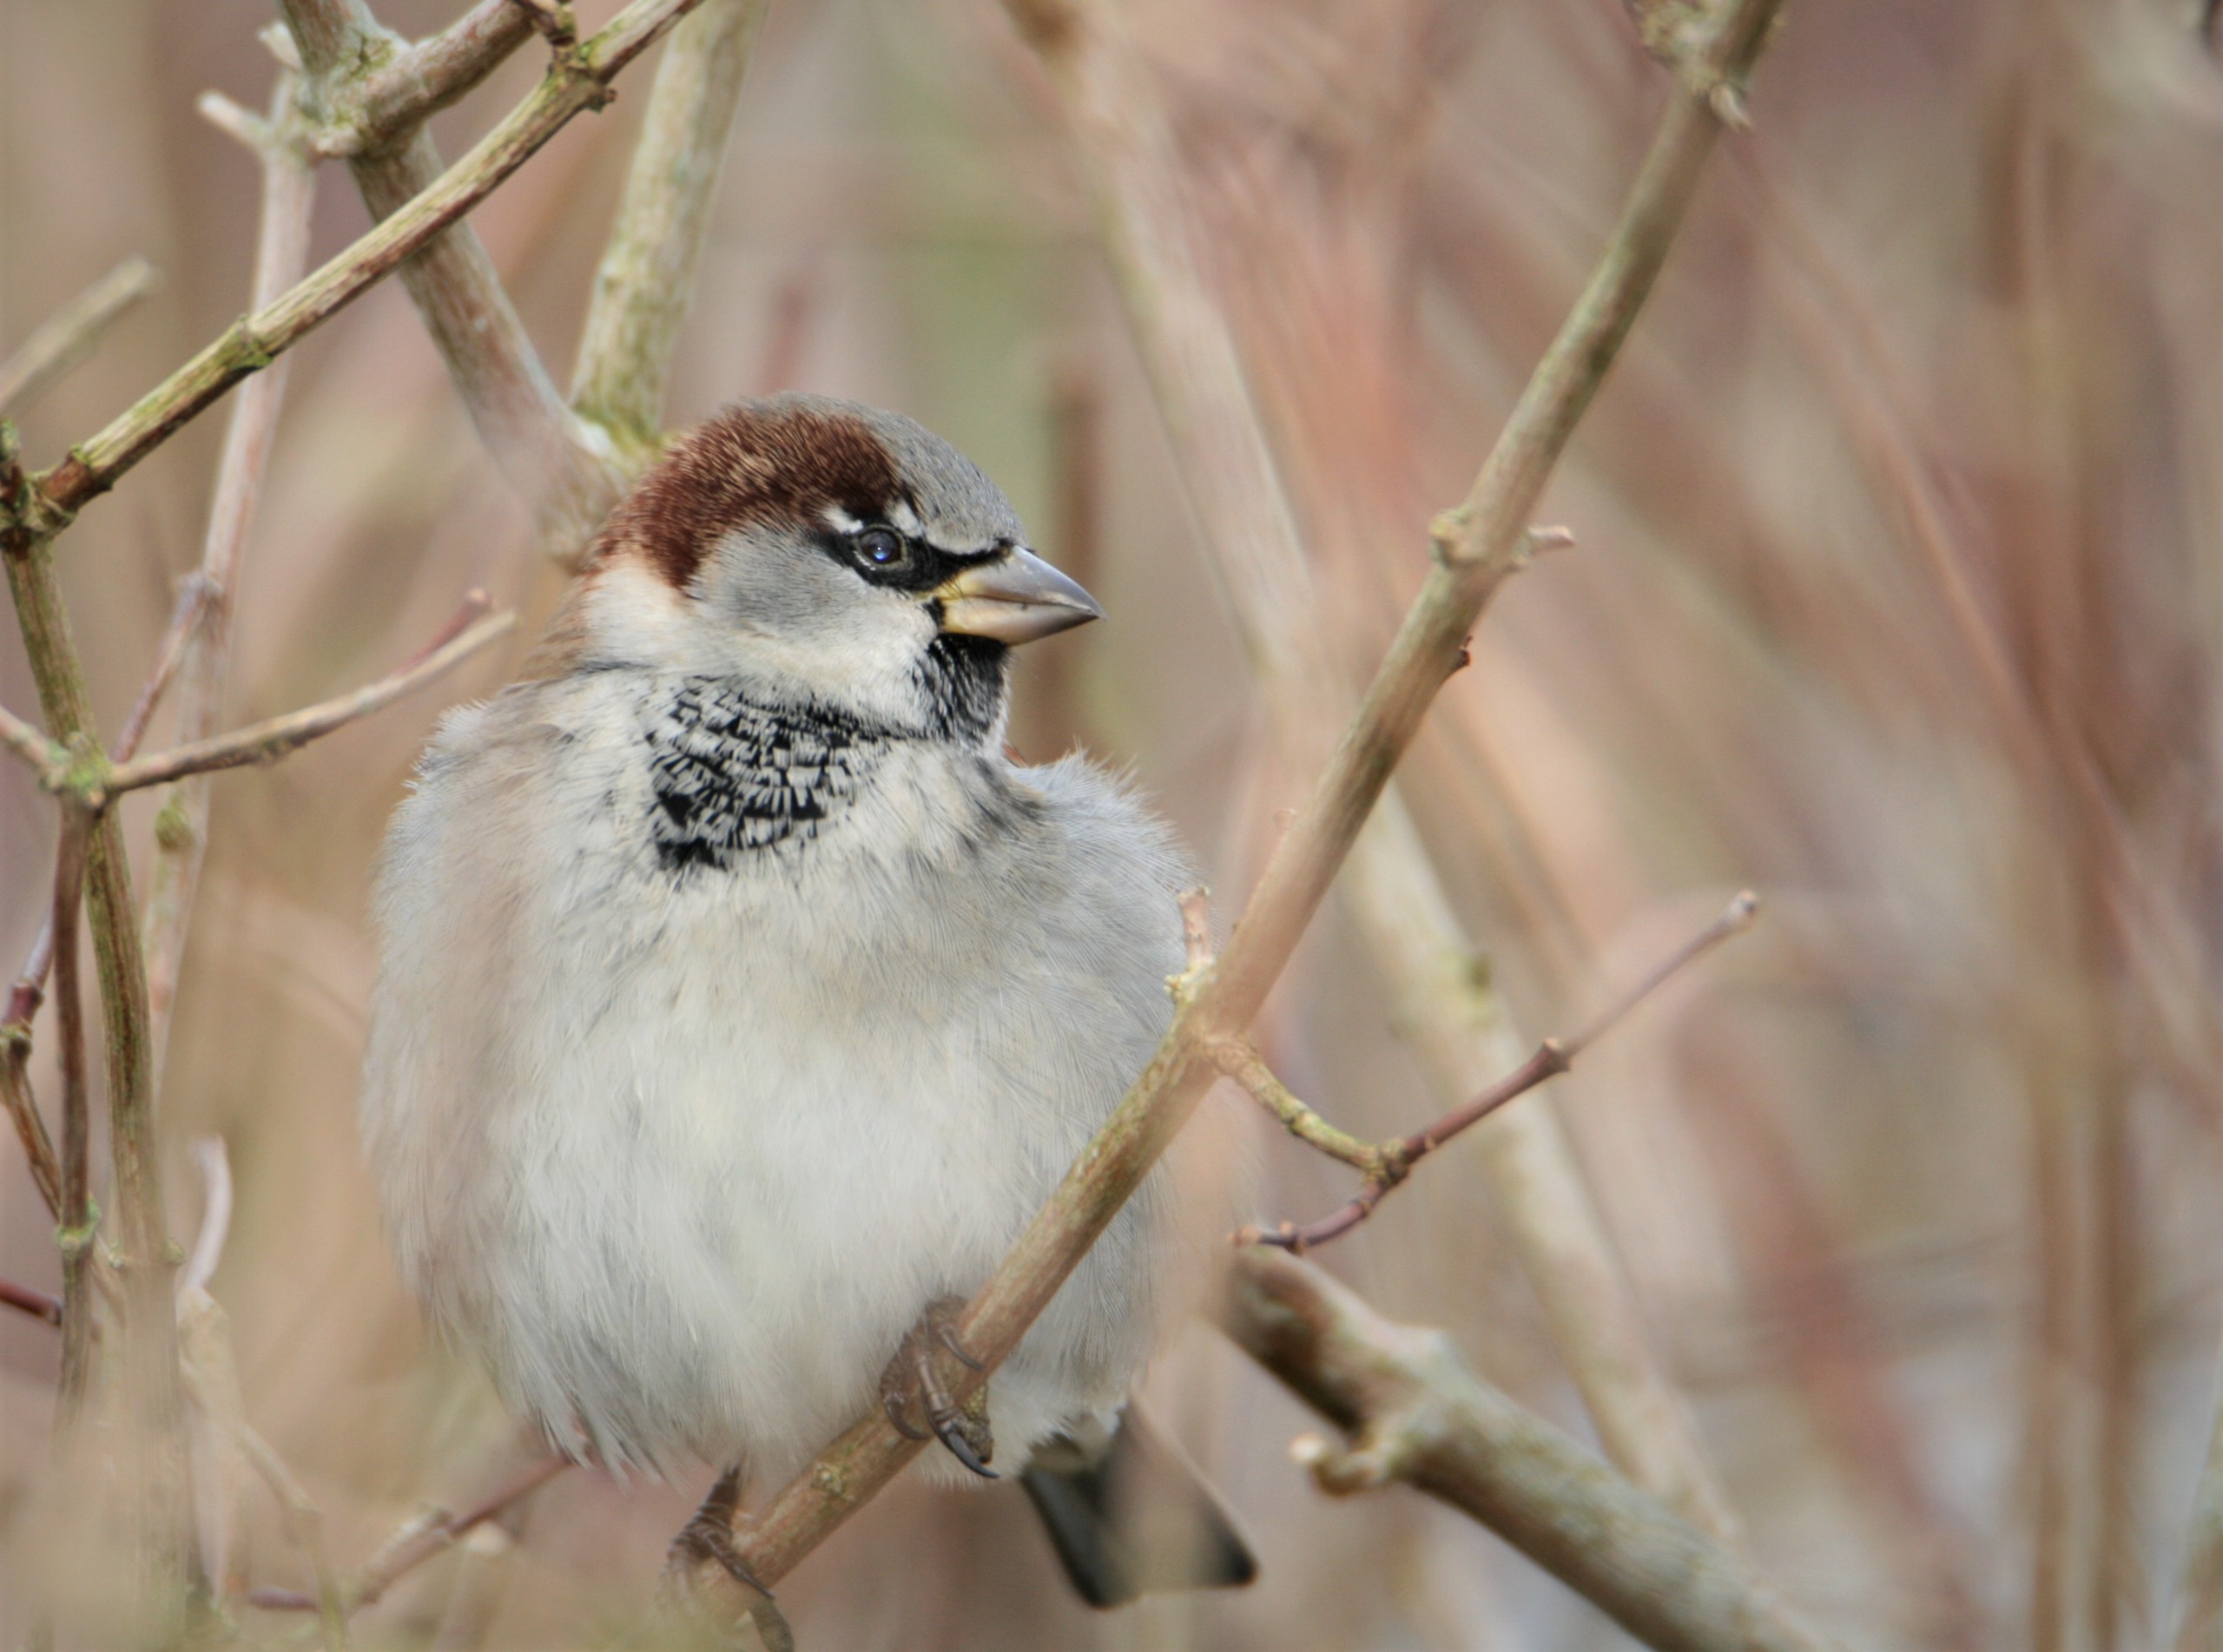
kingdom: Animalia
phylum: Chordata
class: Aves
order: Passeriformes
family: Passeridae
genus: Passer
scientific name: Passer domesticus
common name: Gråspurv
